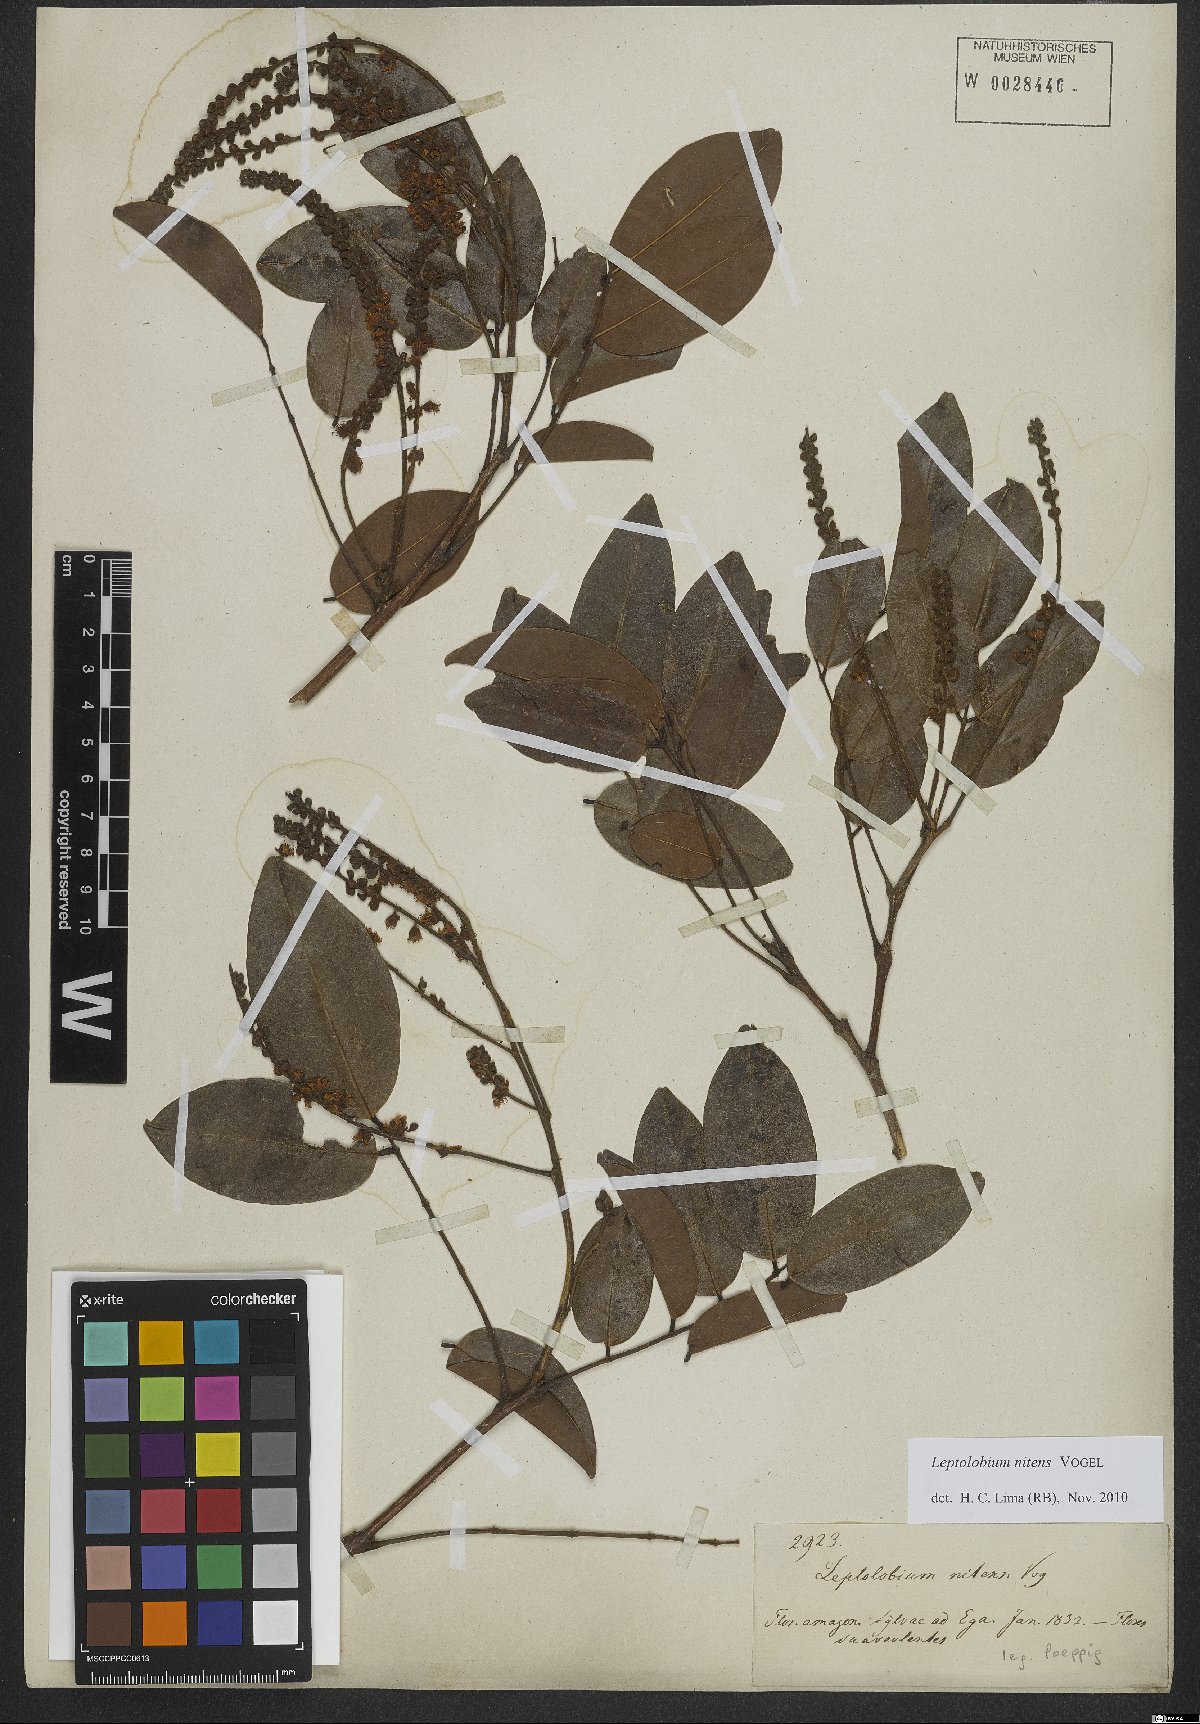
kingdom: Plantae
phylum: Tracheophyta
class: Magnoliopsida
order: Fabales
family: Fabaceae
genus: Leptolobium
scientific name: Leptolobium nitens
